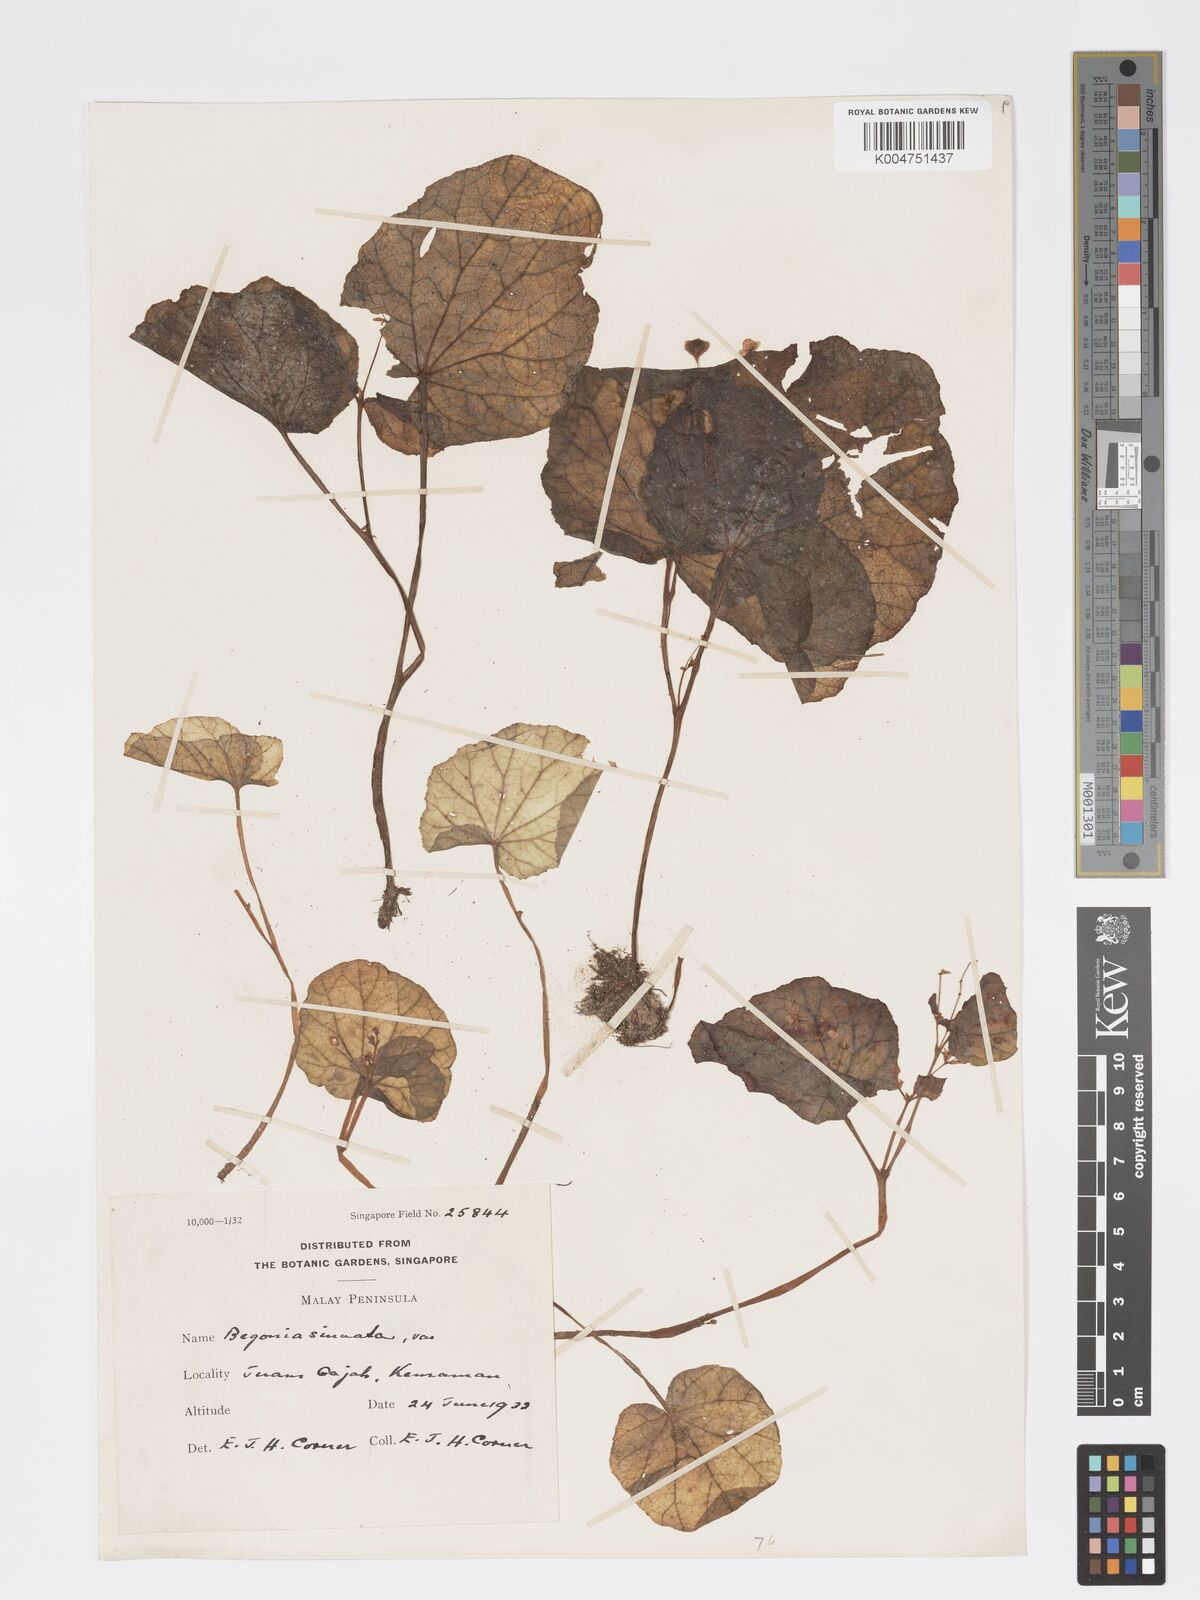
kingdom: Plantae
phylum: Tracheophyta
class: Magnoliopsida
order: Cucurbitales
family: Begoniaceae
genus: Begonia
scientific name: Begonia
